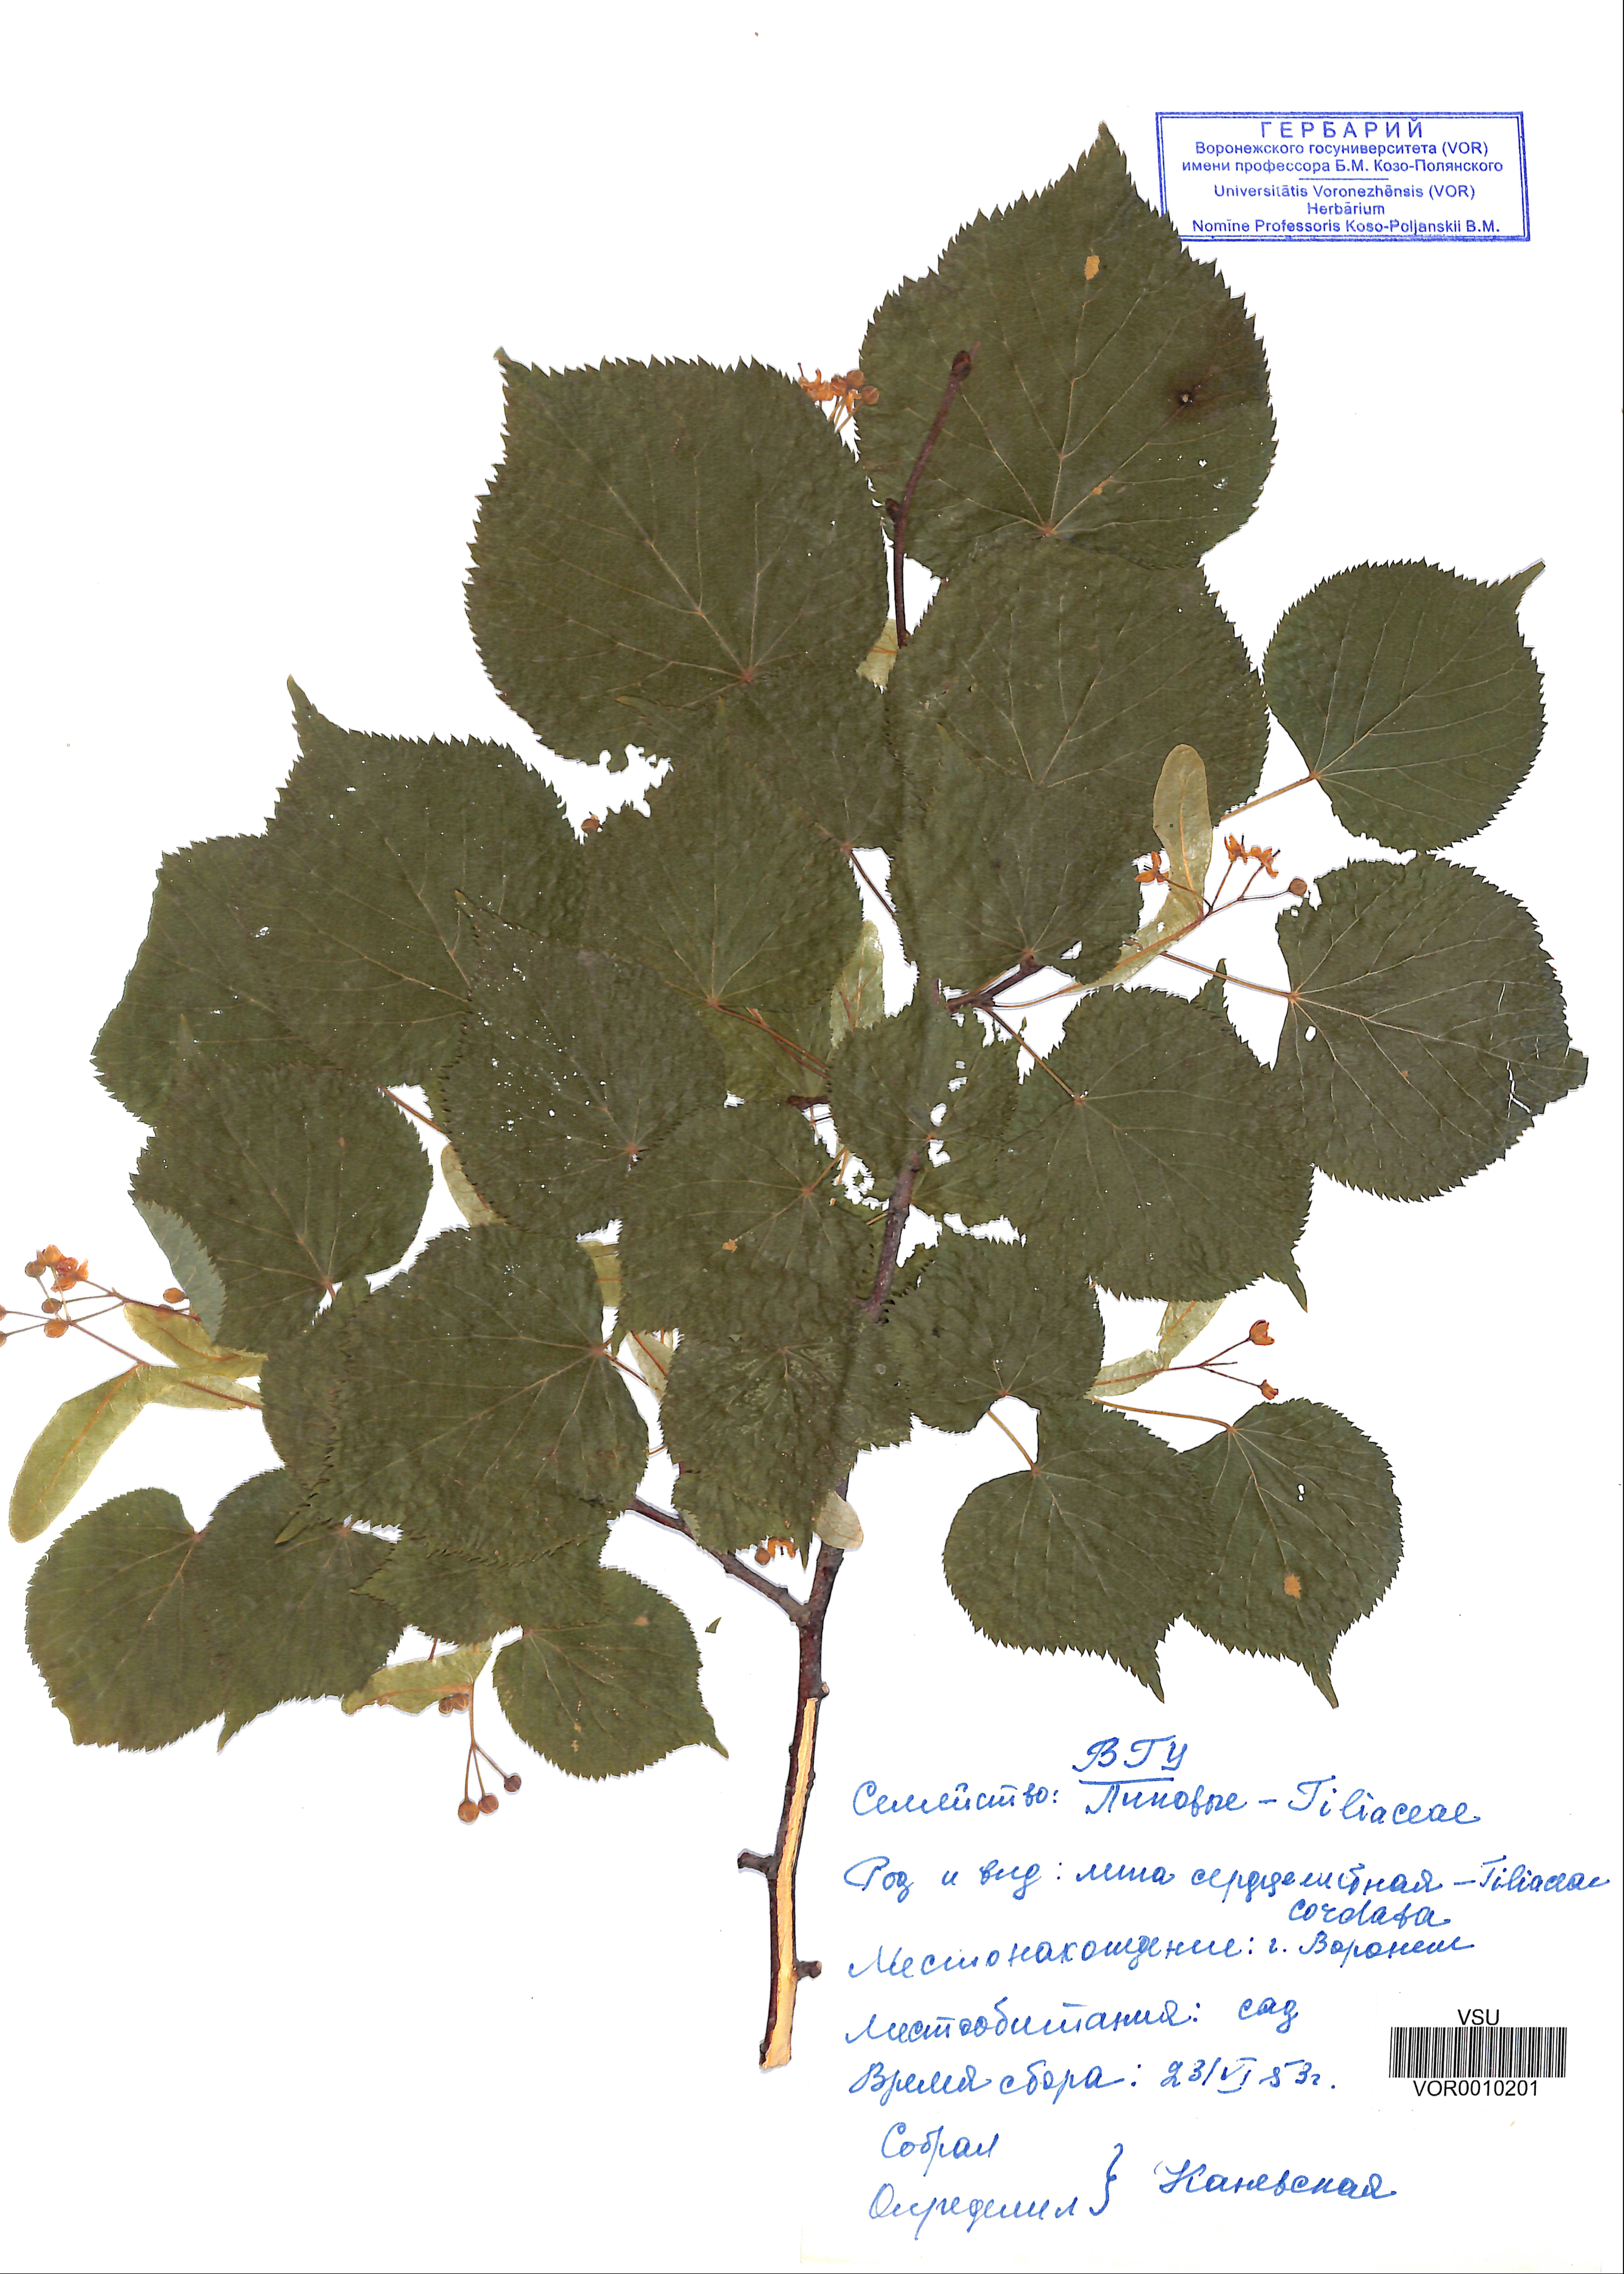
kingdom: Plantae
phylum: Tracheophyta
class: Magnoliopsida
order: Malvales
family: Malvaceae
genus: Tilia
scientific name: Tilia cordata
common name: Small-leaved lime
